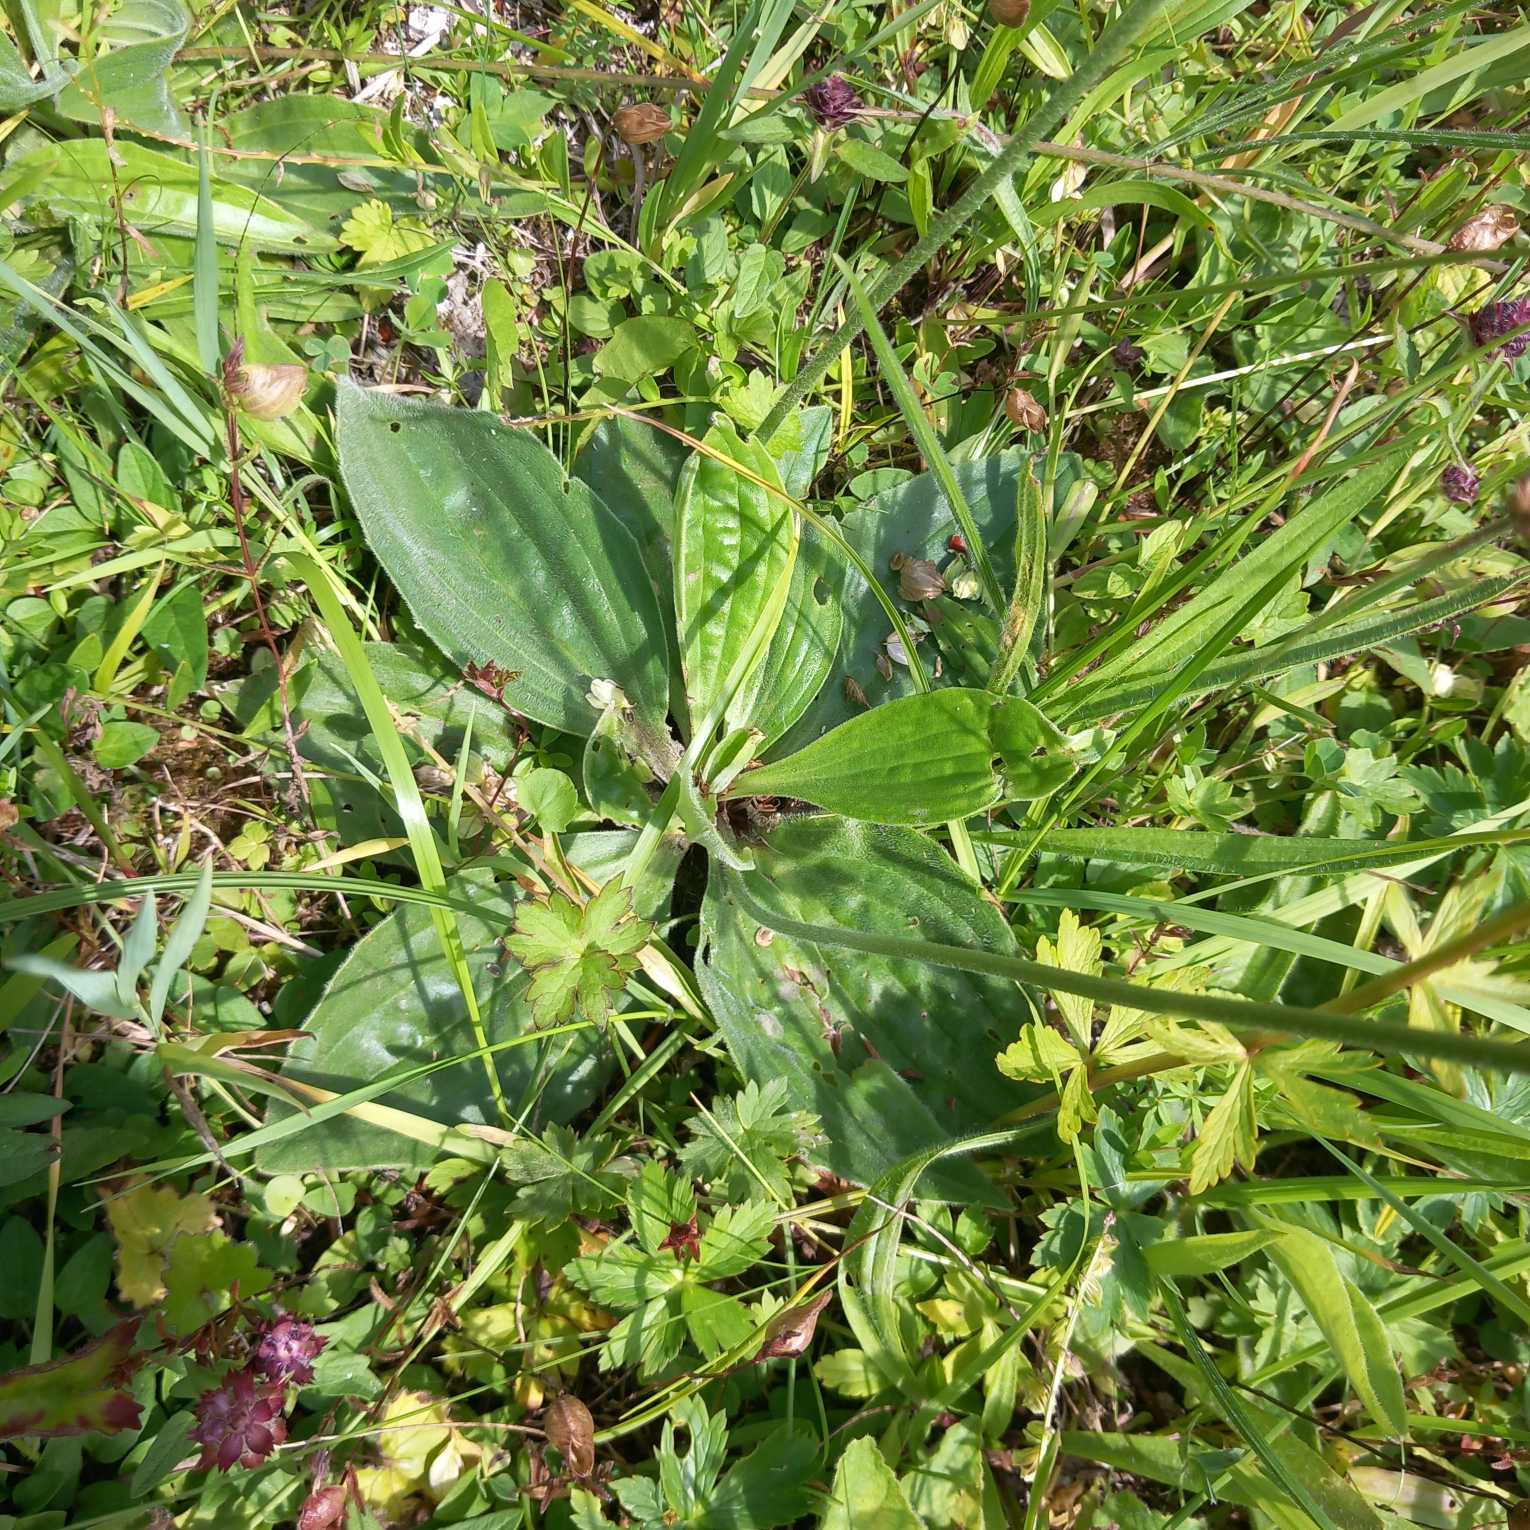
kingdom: Plantae
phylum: Tracheophyta
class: Magnoliopsida
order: Lamiales
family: Plantaginaceae
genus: Plantago
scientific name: Plantago media
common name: Dunet vejbred
